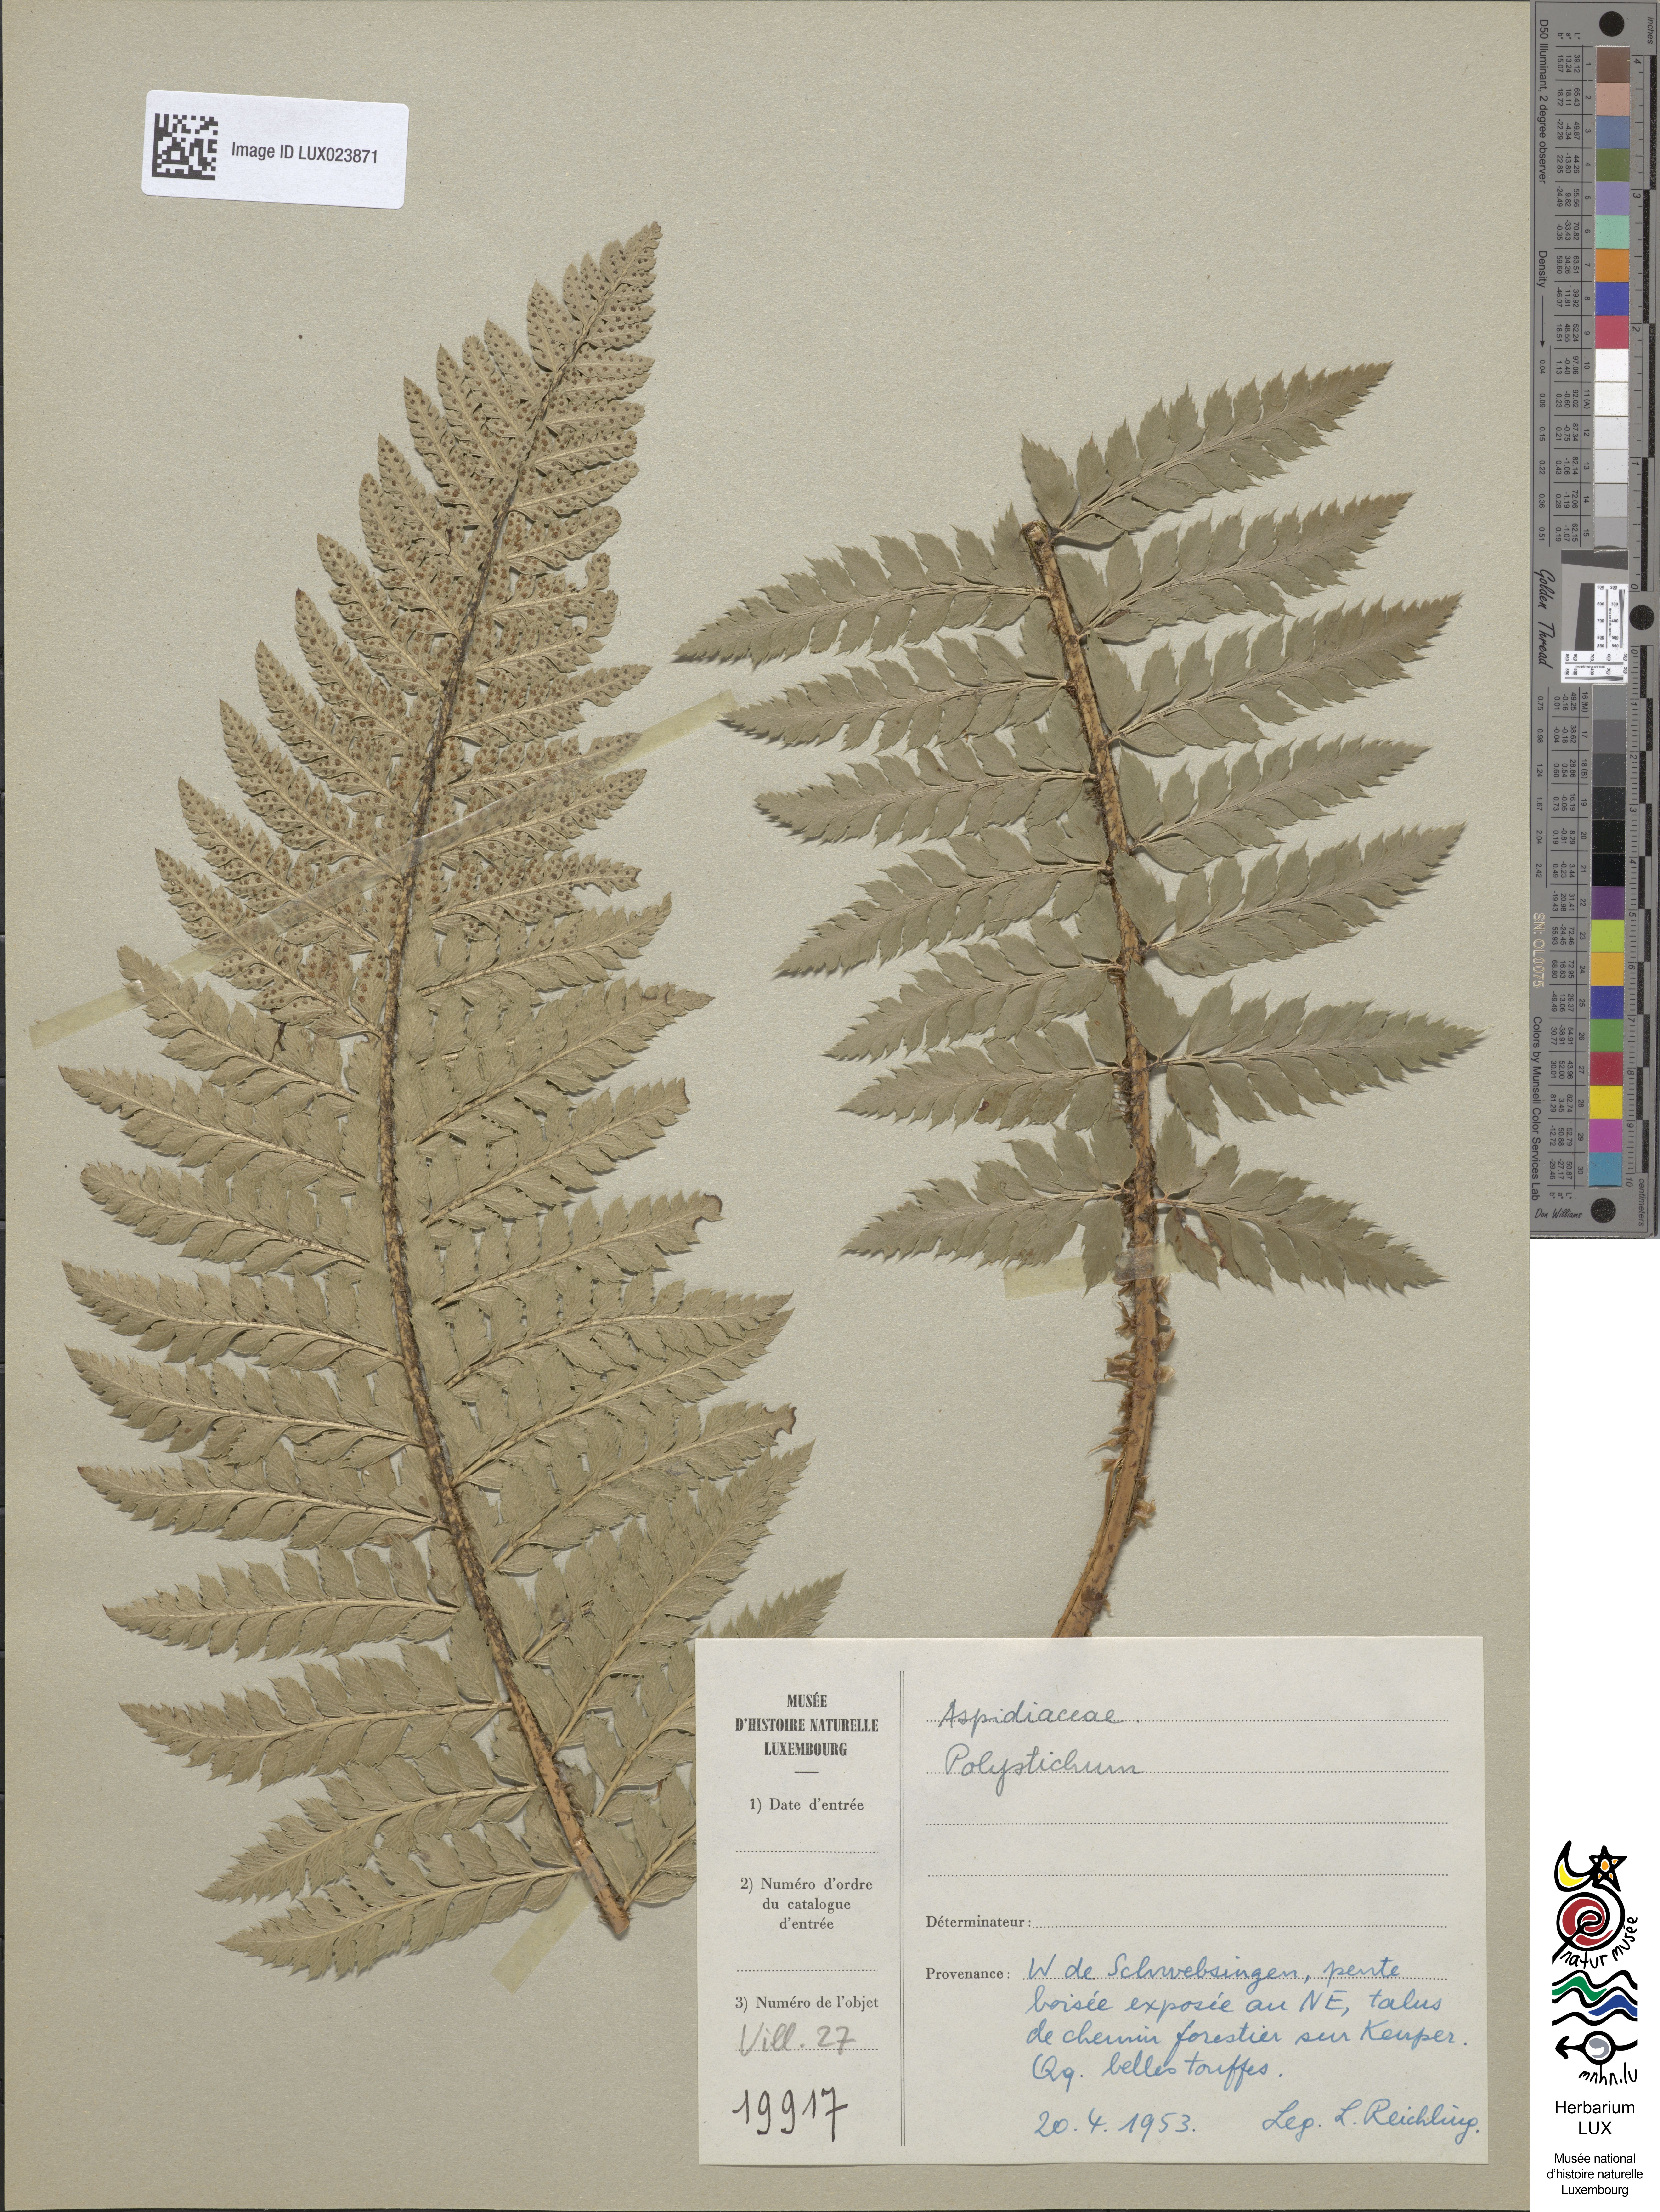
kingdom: Plantae
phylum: Tracheophyta
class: Polypodiopsida
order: Polypodiales
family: Dryopteridaceae
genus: Polystichum
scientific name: Polystichum
